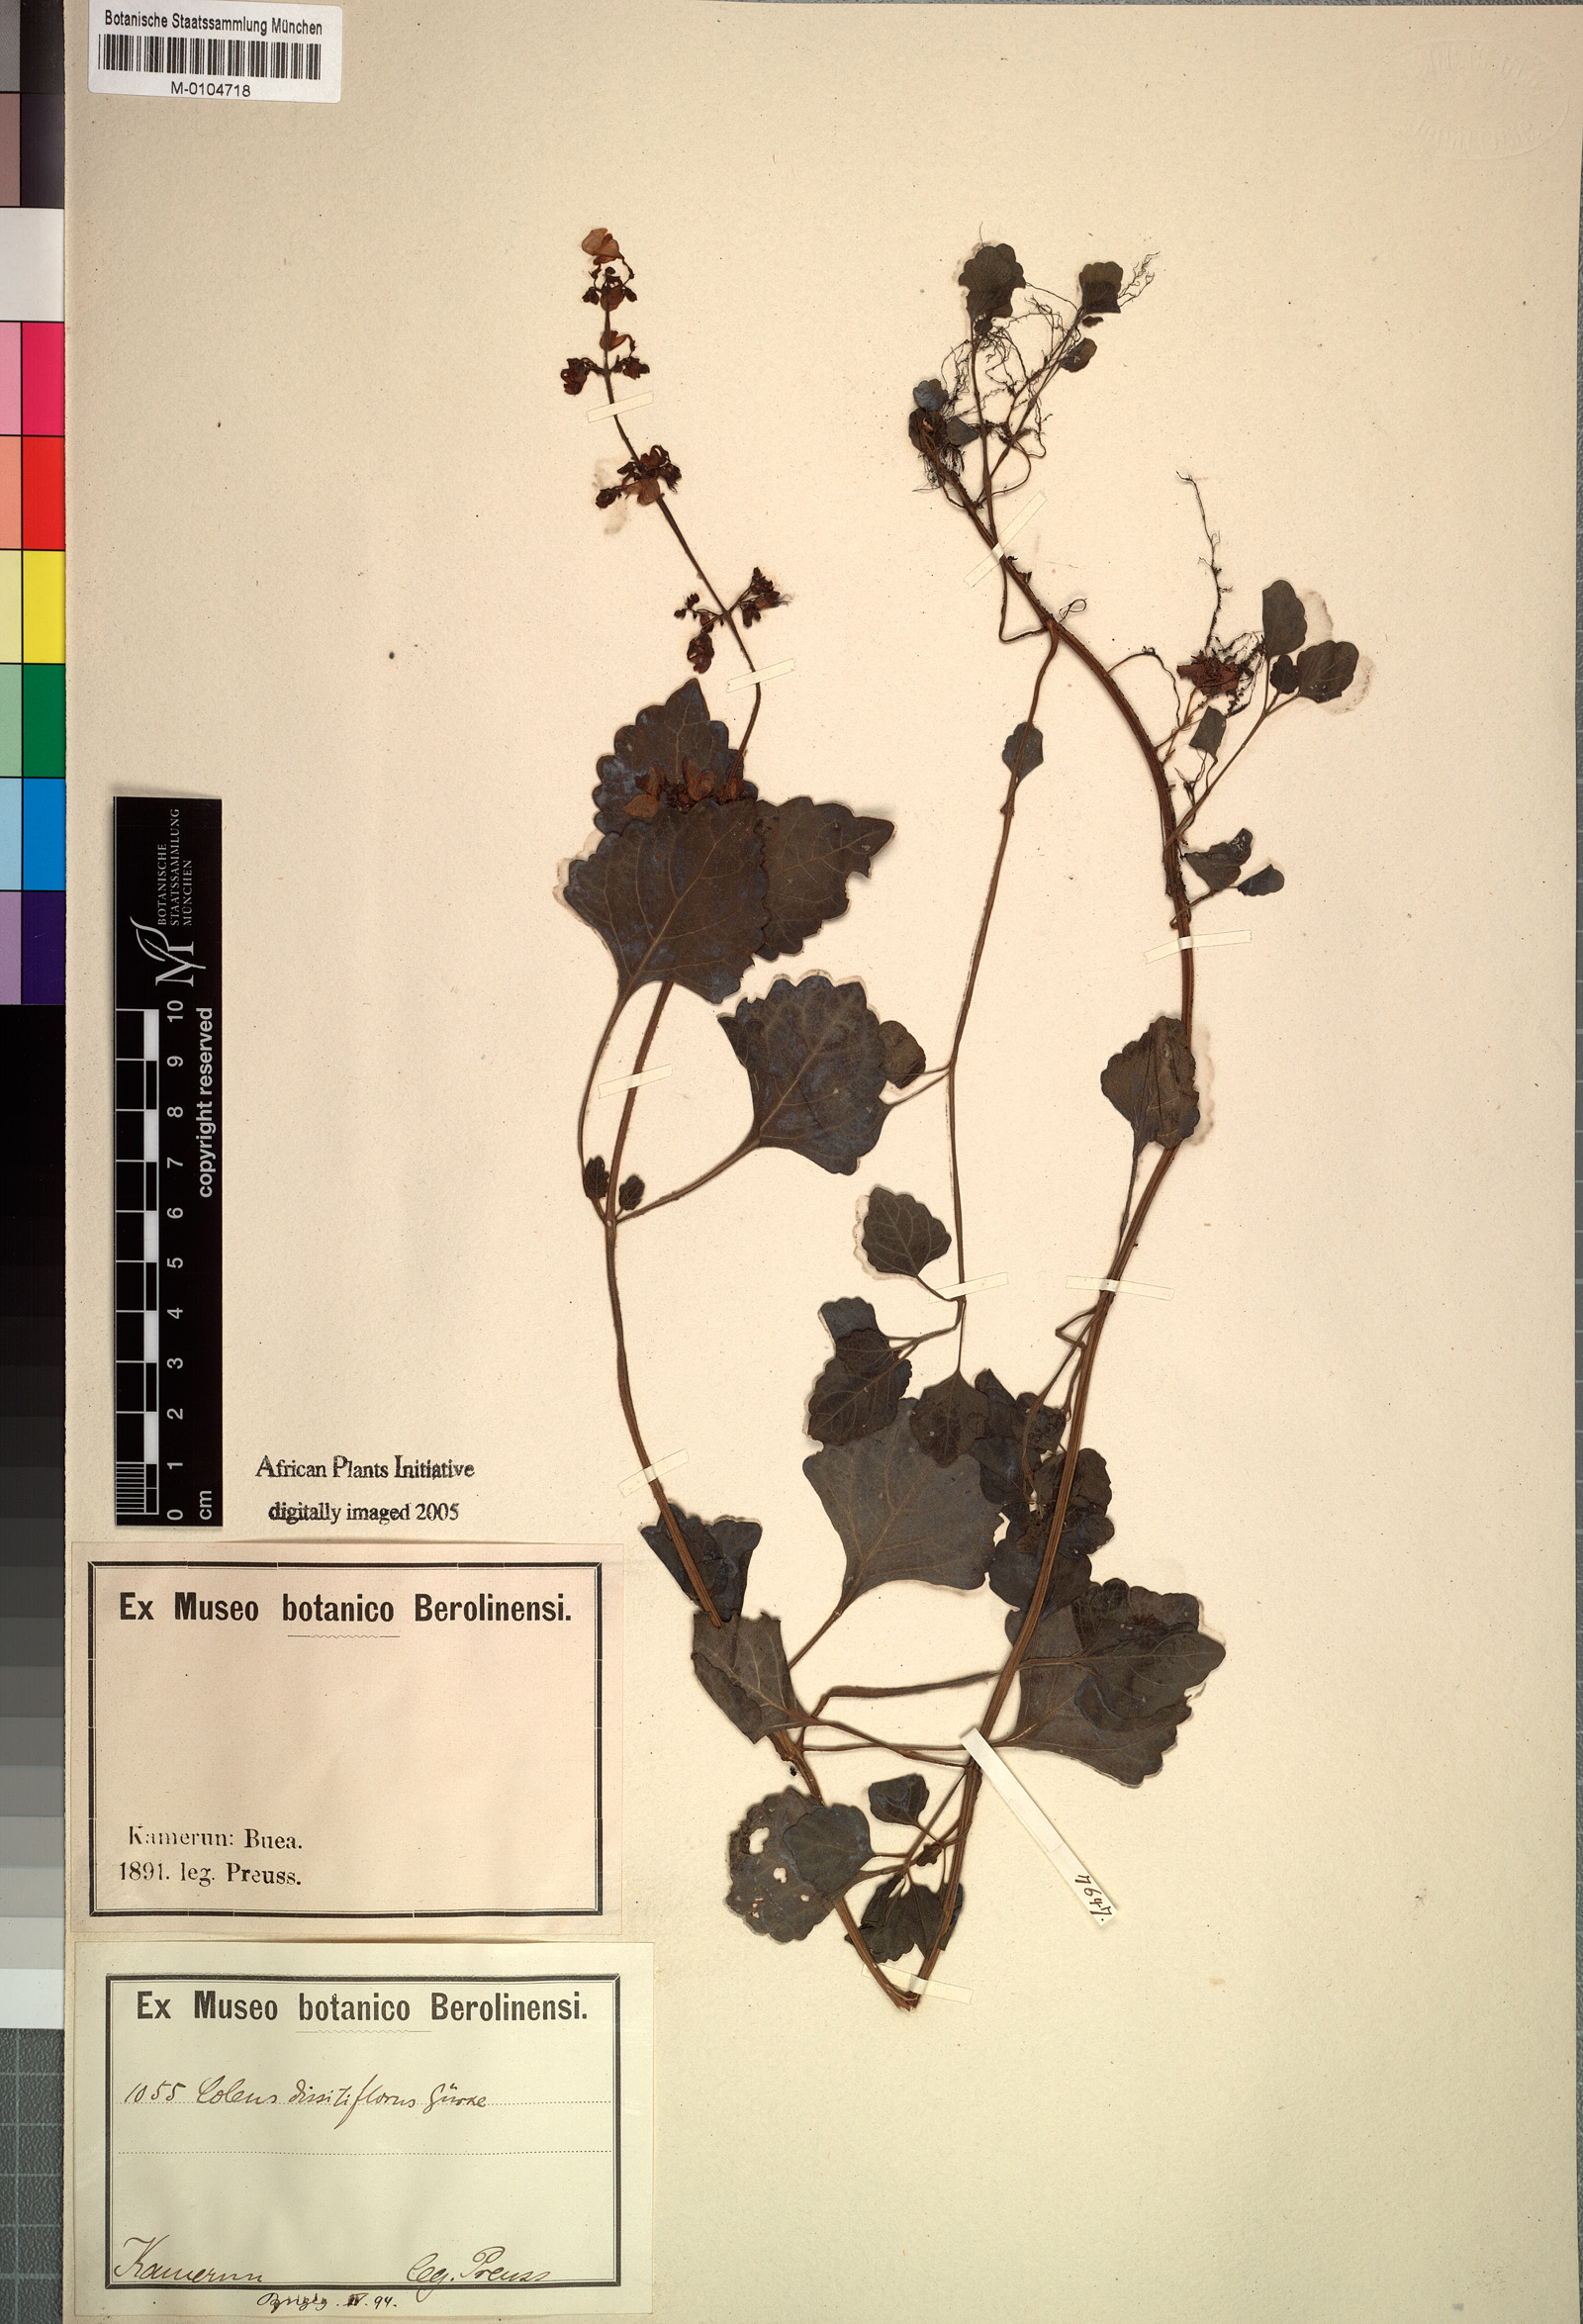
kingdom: Plantae
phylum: Tracheophyta
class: Magnoliopsida
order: Lamiales
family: Lamiaceae
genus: Coleus
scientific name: Coleus dissitiflorus
